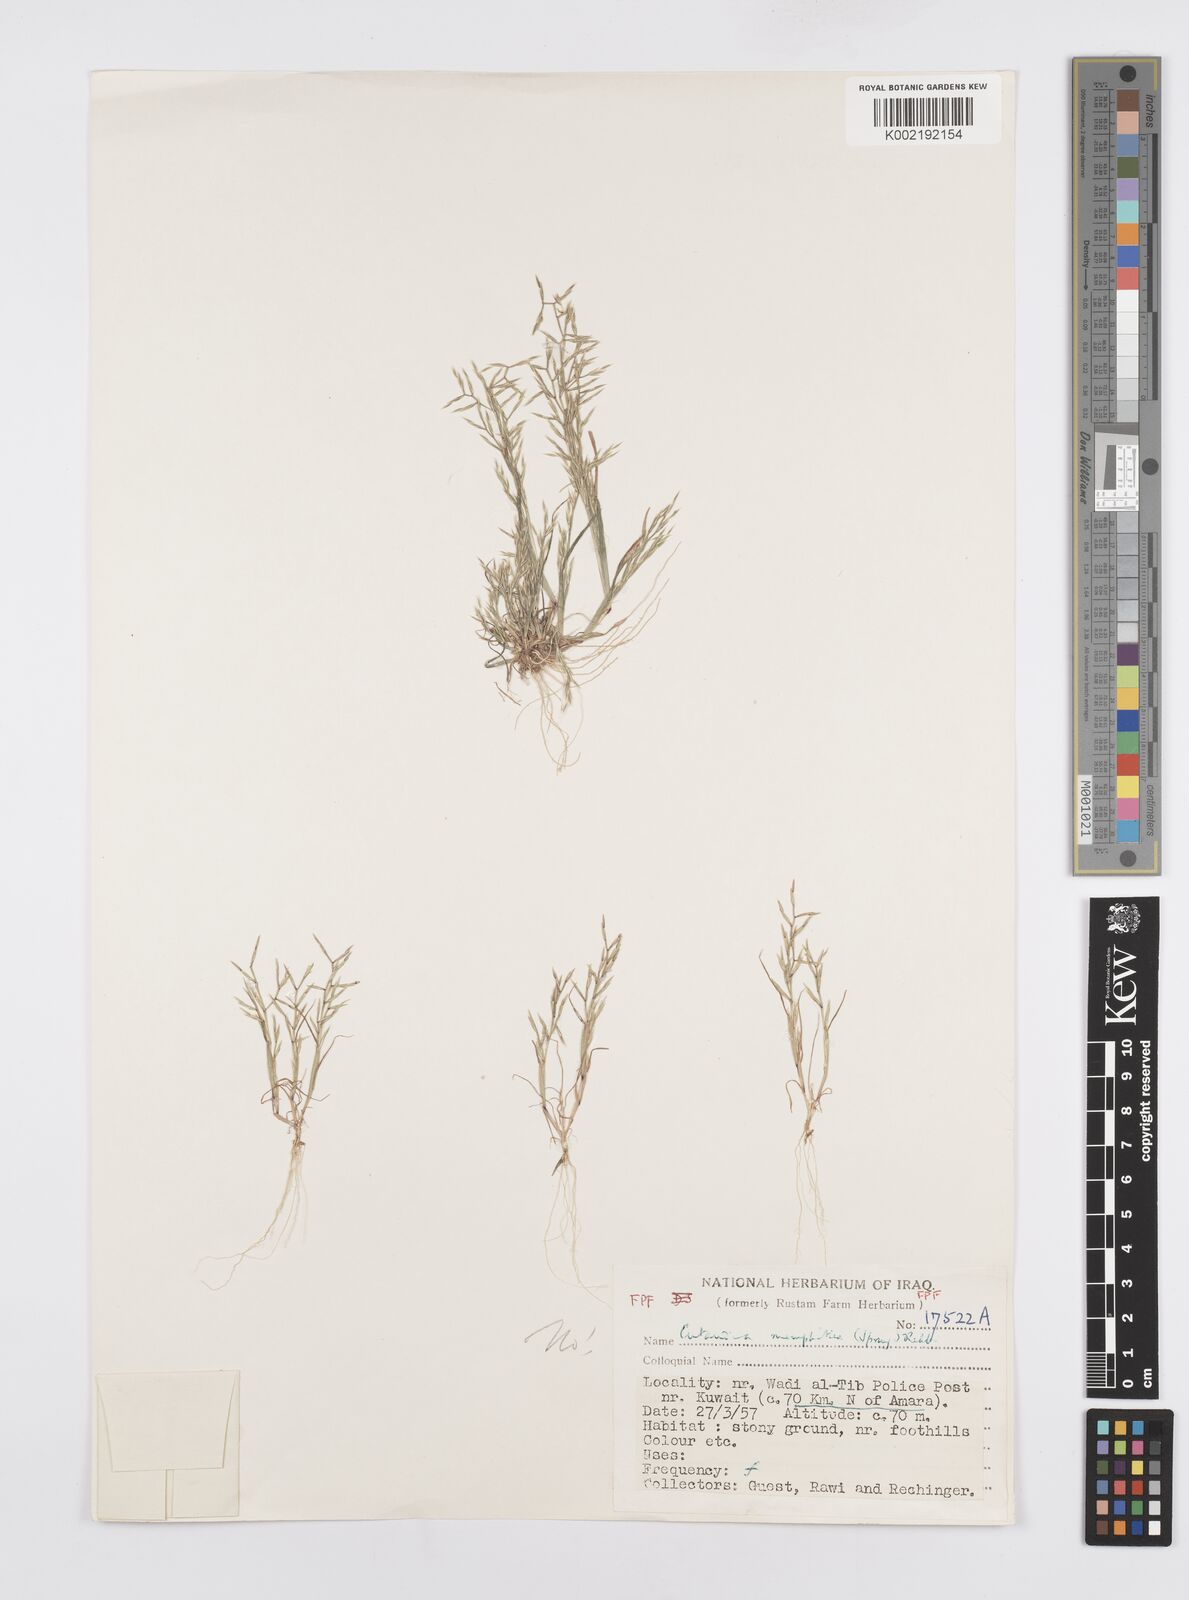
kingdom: Plantae
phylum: Tracheophyta
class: Liliopsida
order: Poales
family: Poaceae
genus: Cutandia
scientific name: Cutandia dichotoma
